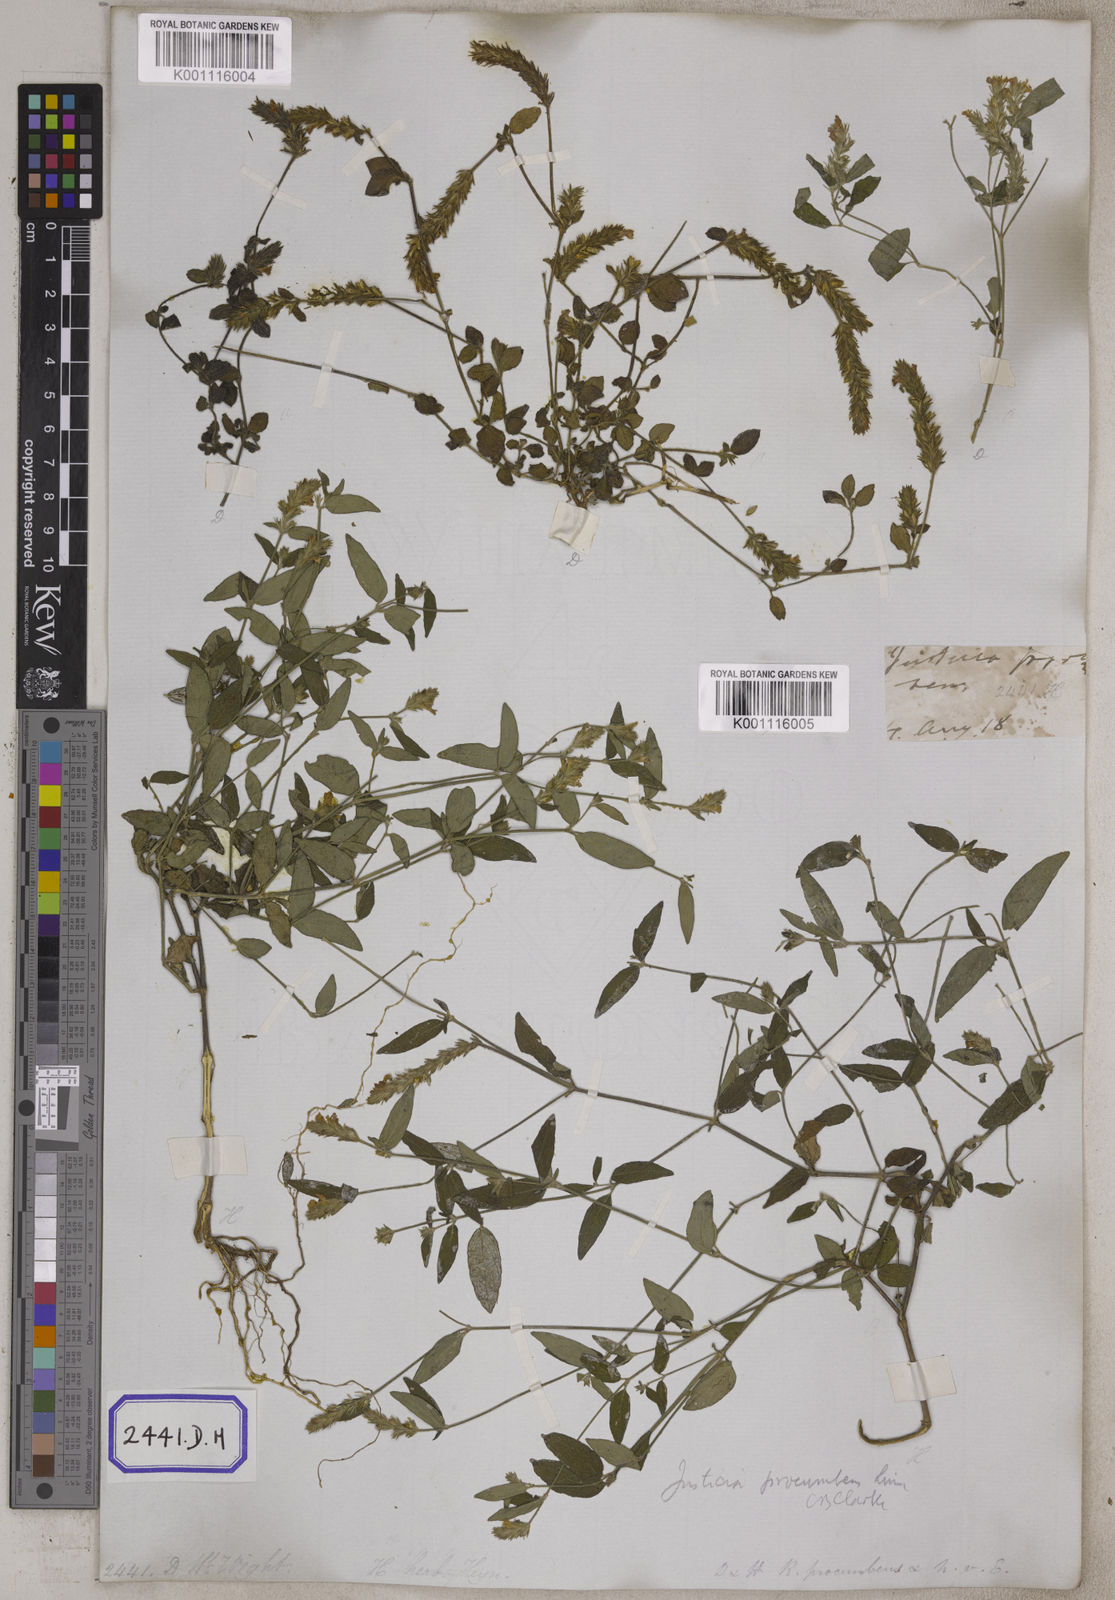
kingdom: Plantae
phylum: Tracheophyta
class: Magnoliopsida
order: Lamiales
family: Acanthaceae
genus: Rostellularia
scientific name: Rostellularia procumbens
